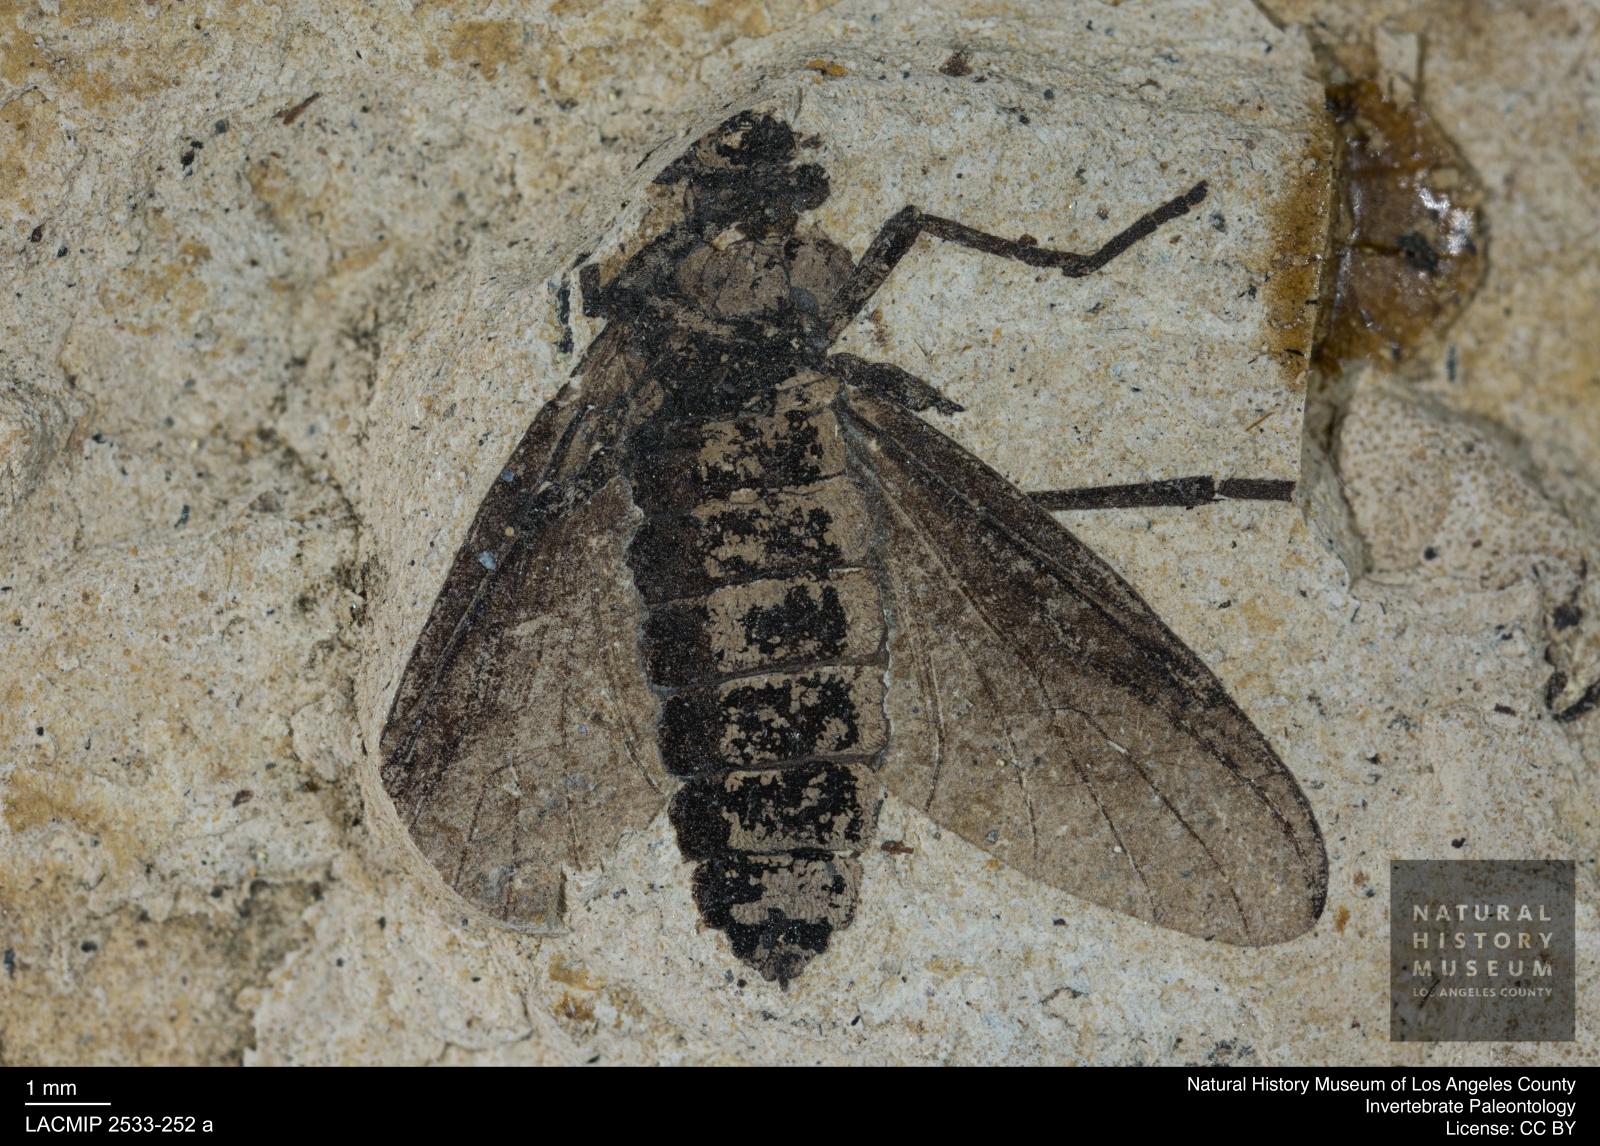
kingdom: Animalia
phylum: Arthropoda
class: Insecta
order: Diptera
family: Bibionidae
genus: Penthetria
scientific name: Penthetria nigra
